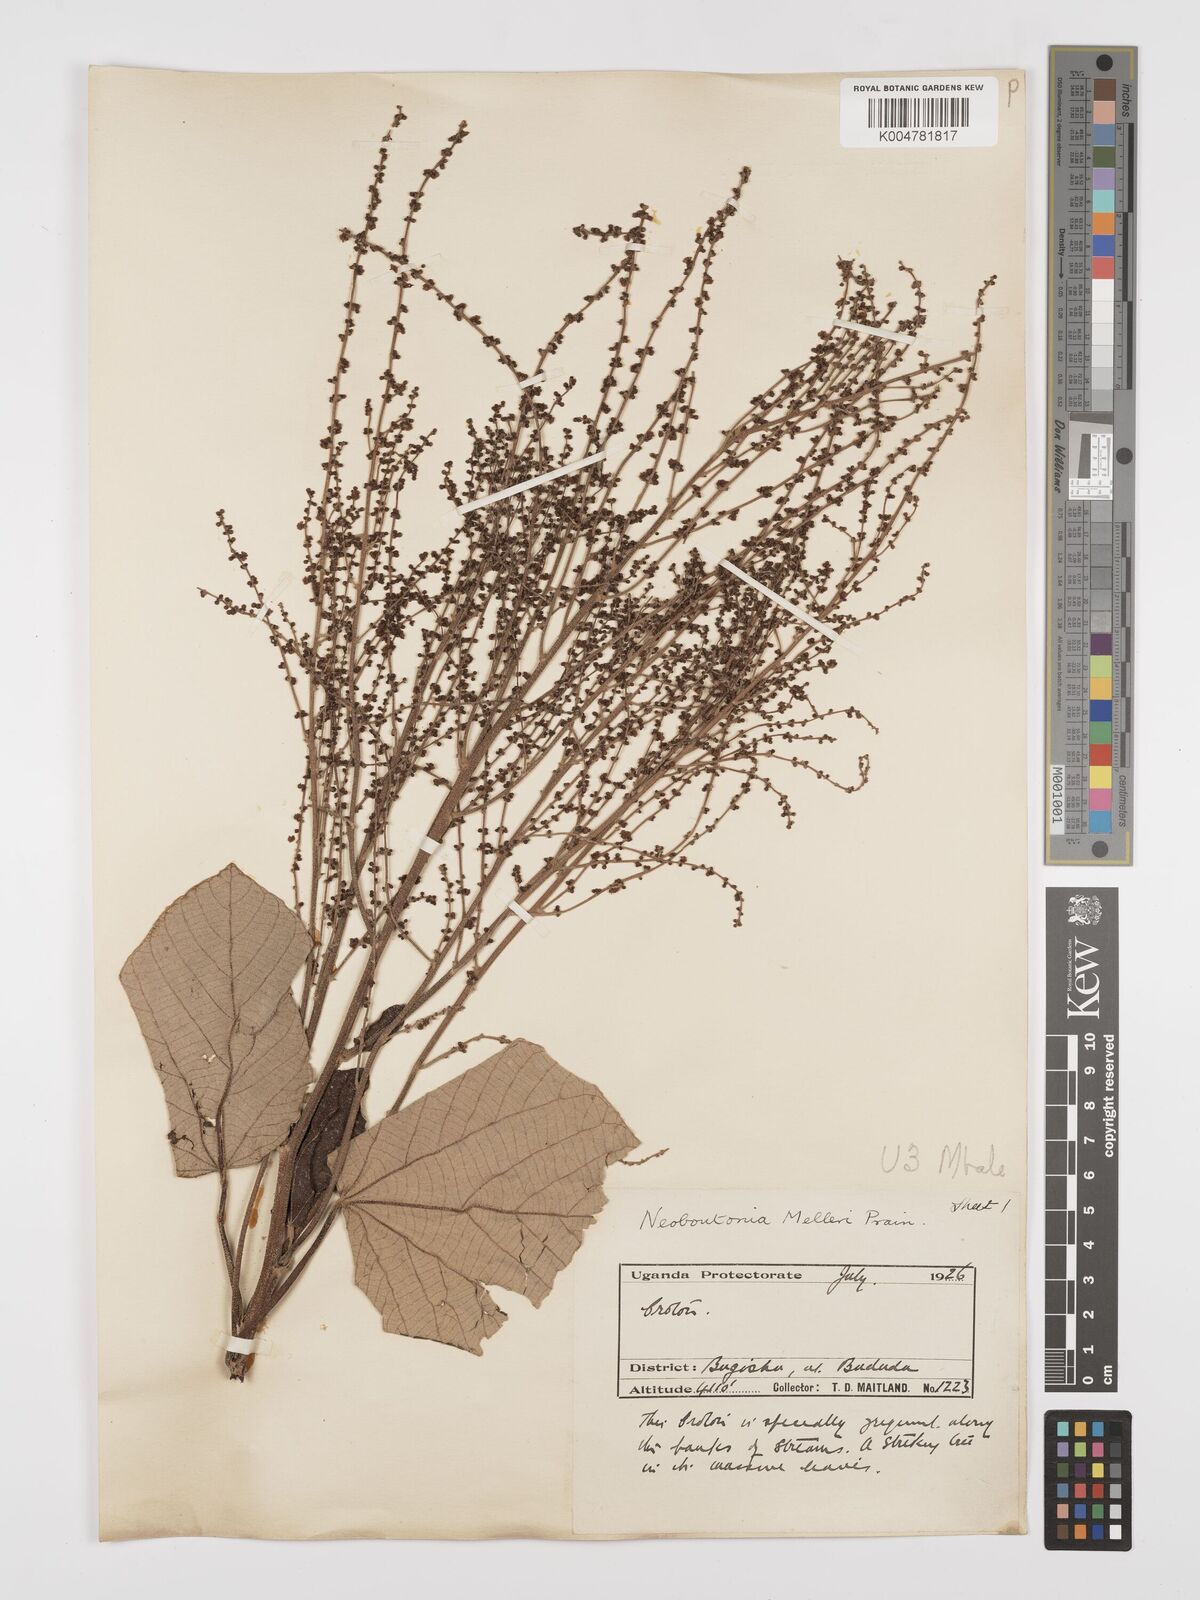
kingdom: Plantae
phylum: Tracheophyta
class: Magnoliopsida
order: Malpighiales
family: Euphorbiaceae
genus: Neoboutonia
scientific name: Neoboutonia melleri
